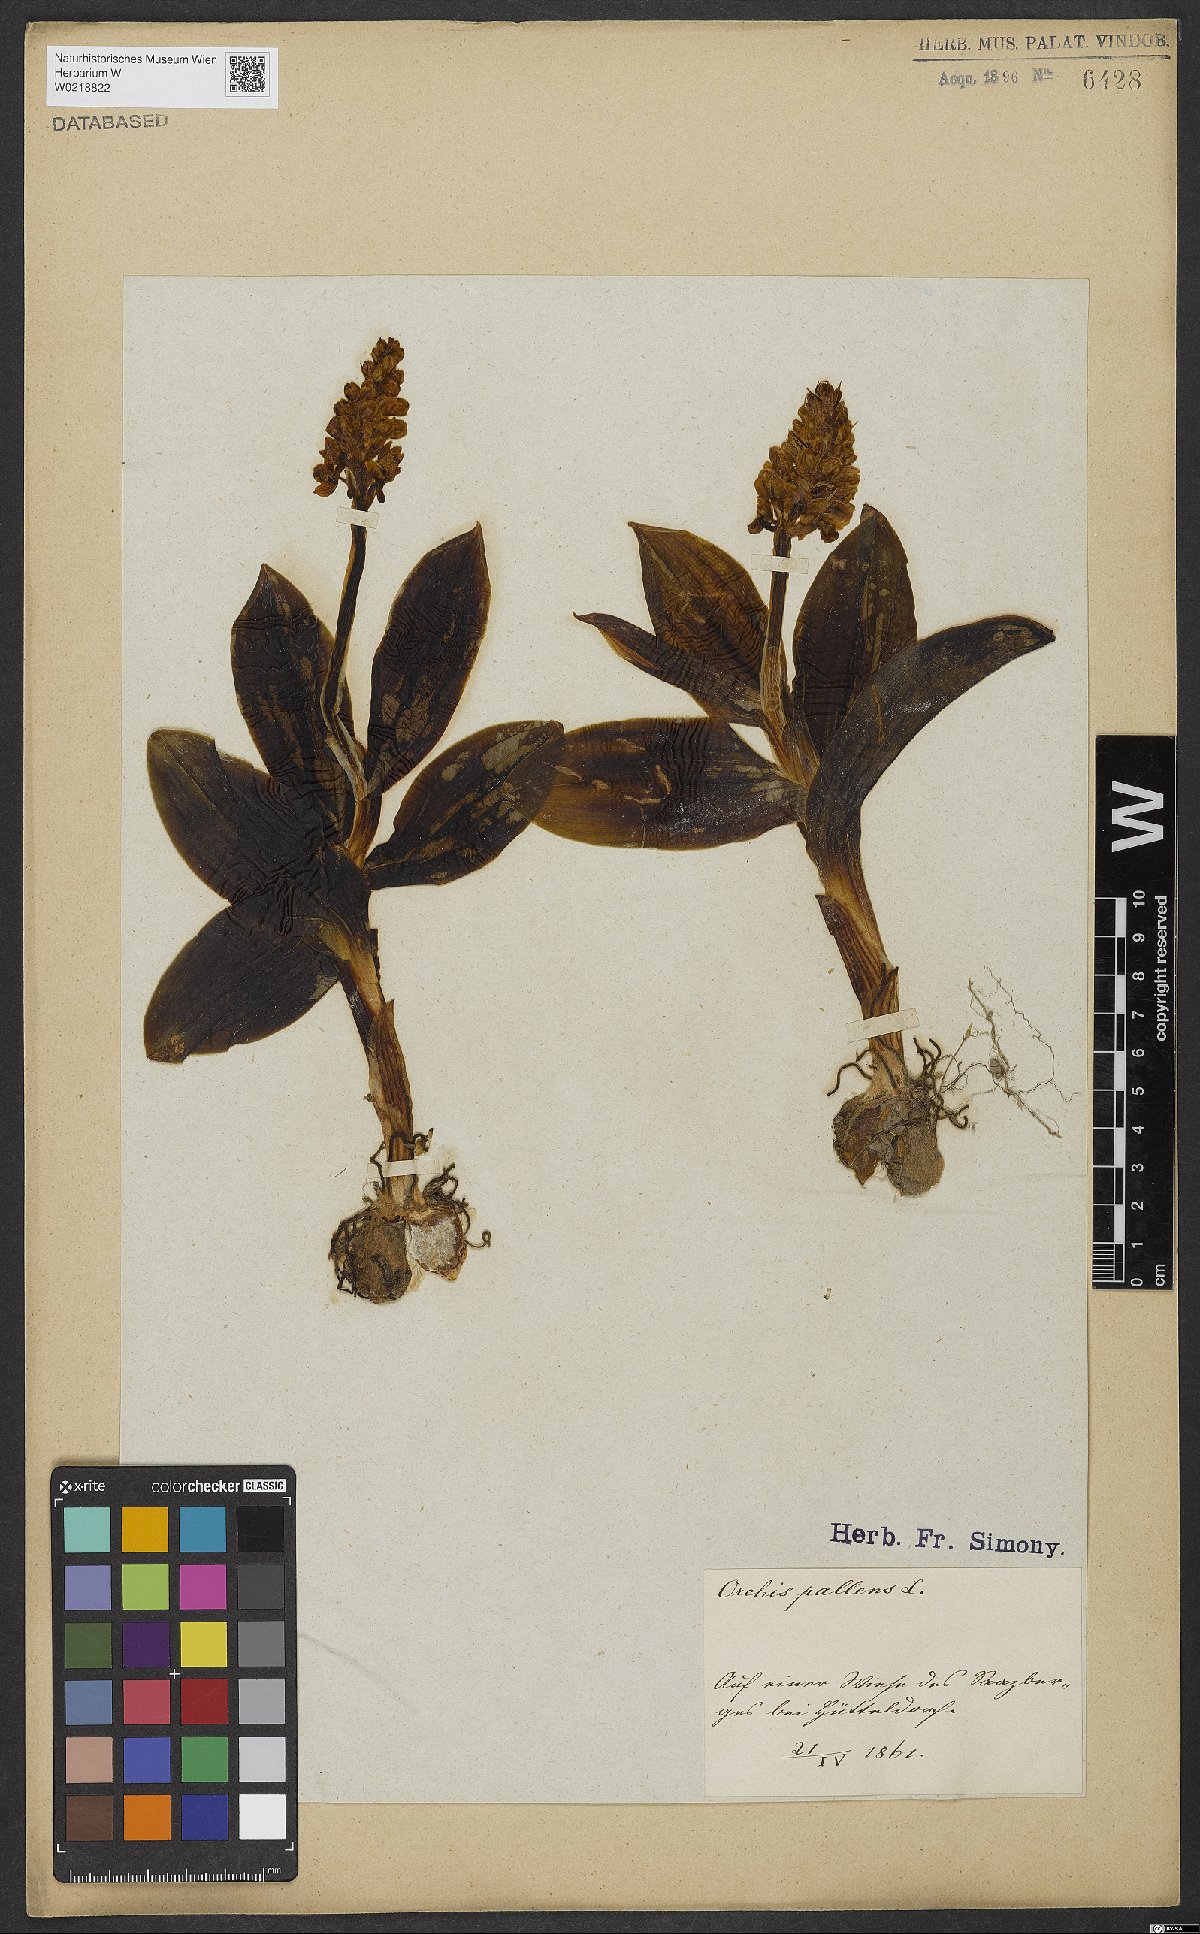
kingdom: Plantae
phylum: Tracheophyta
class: Liliopsida
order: Asparagales
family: Orchidaceae
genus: Orchis
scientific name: Orchis pallens
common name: Pale-flowered orchid
